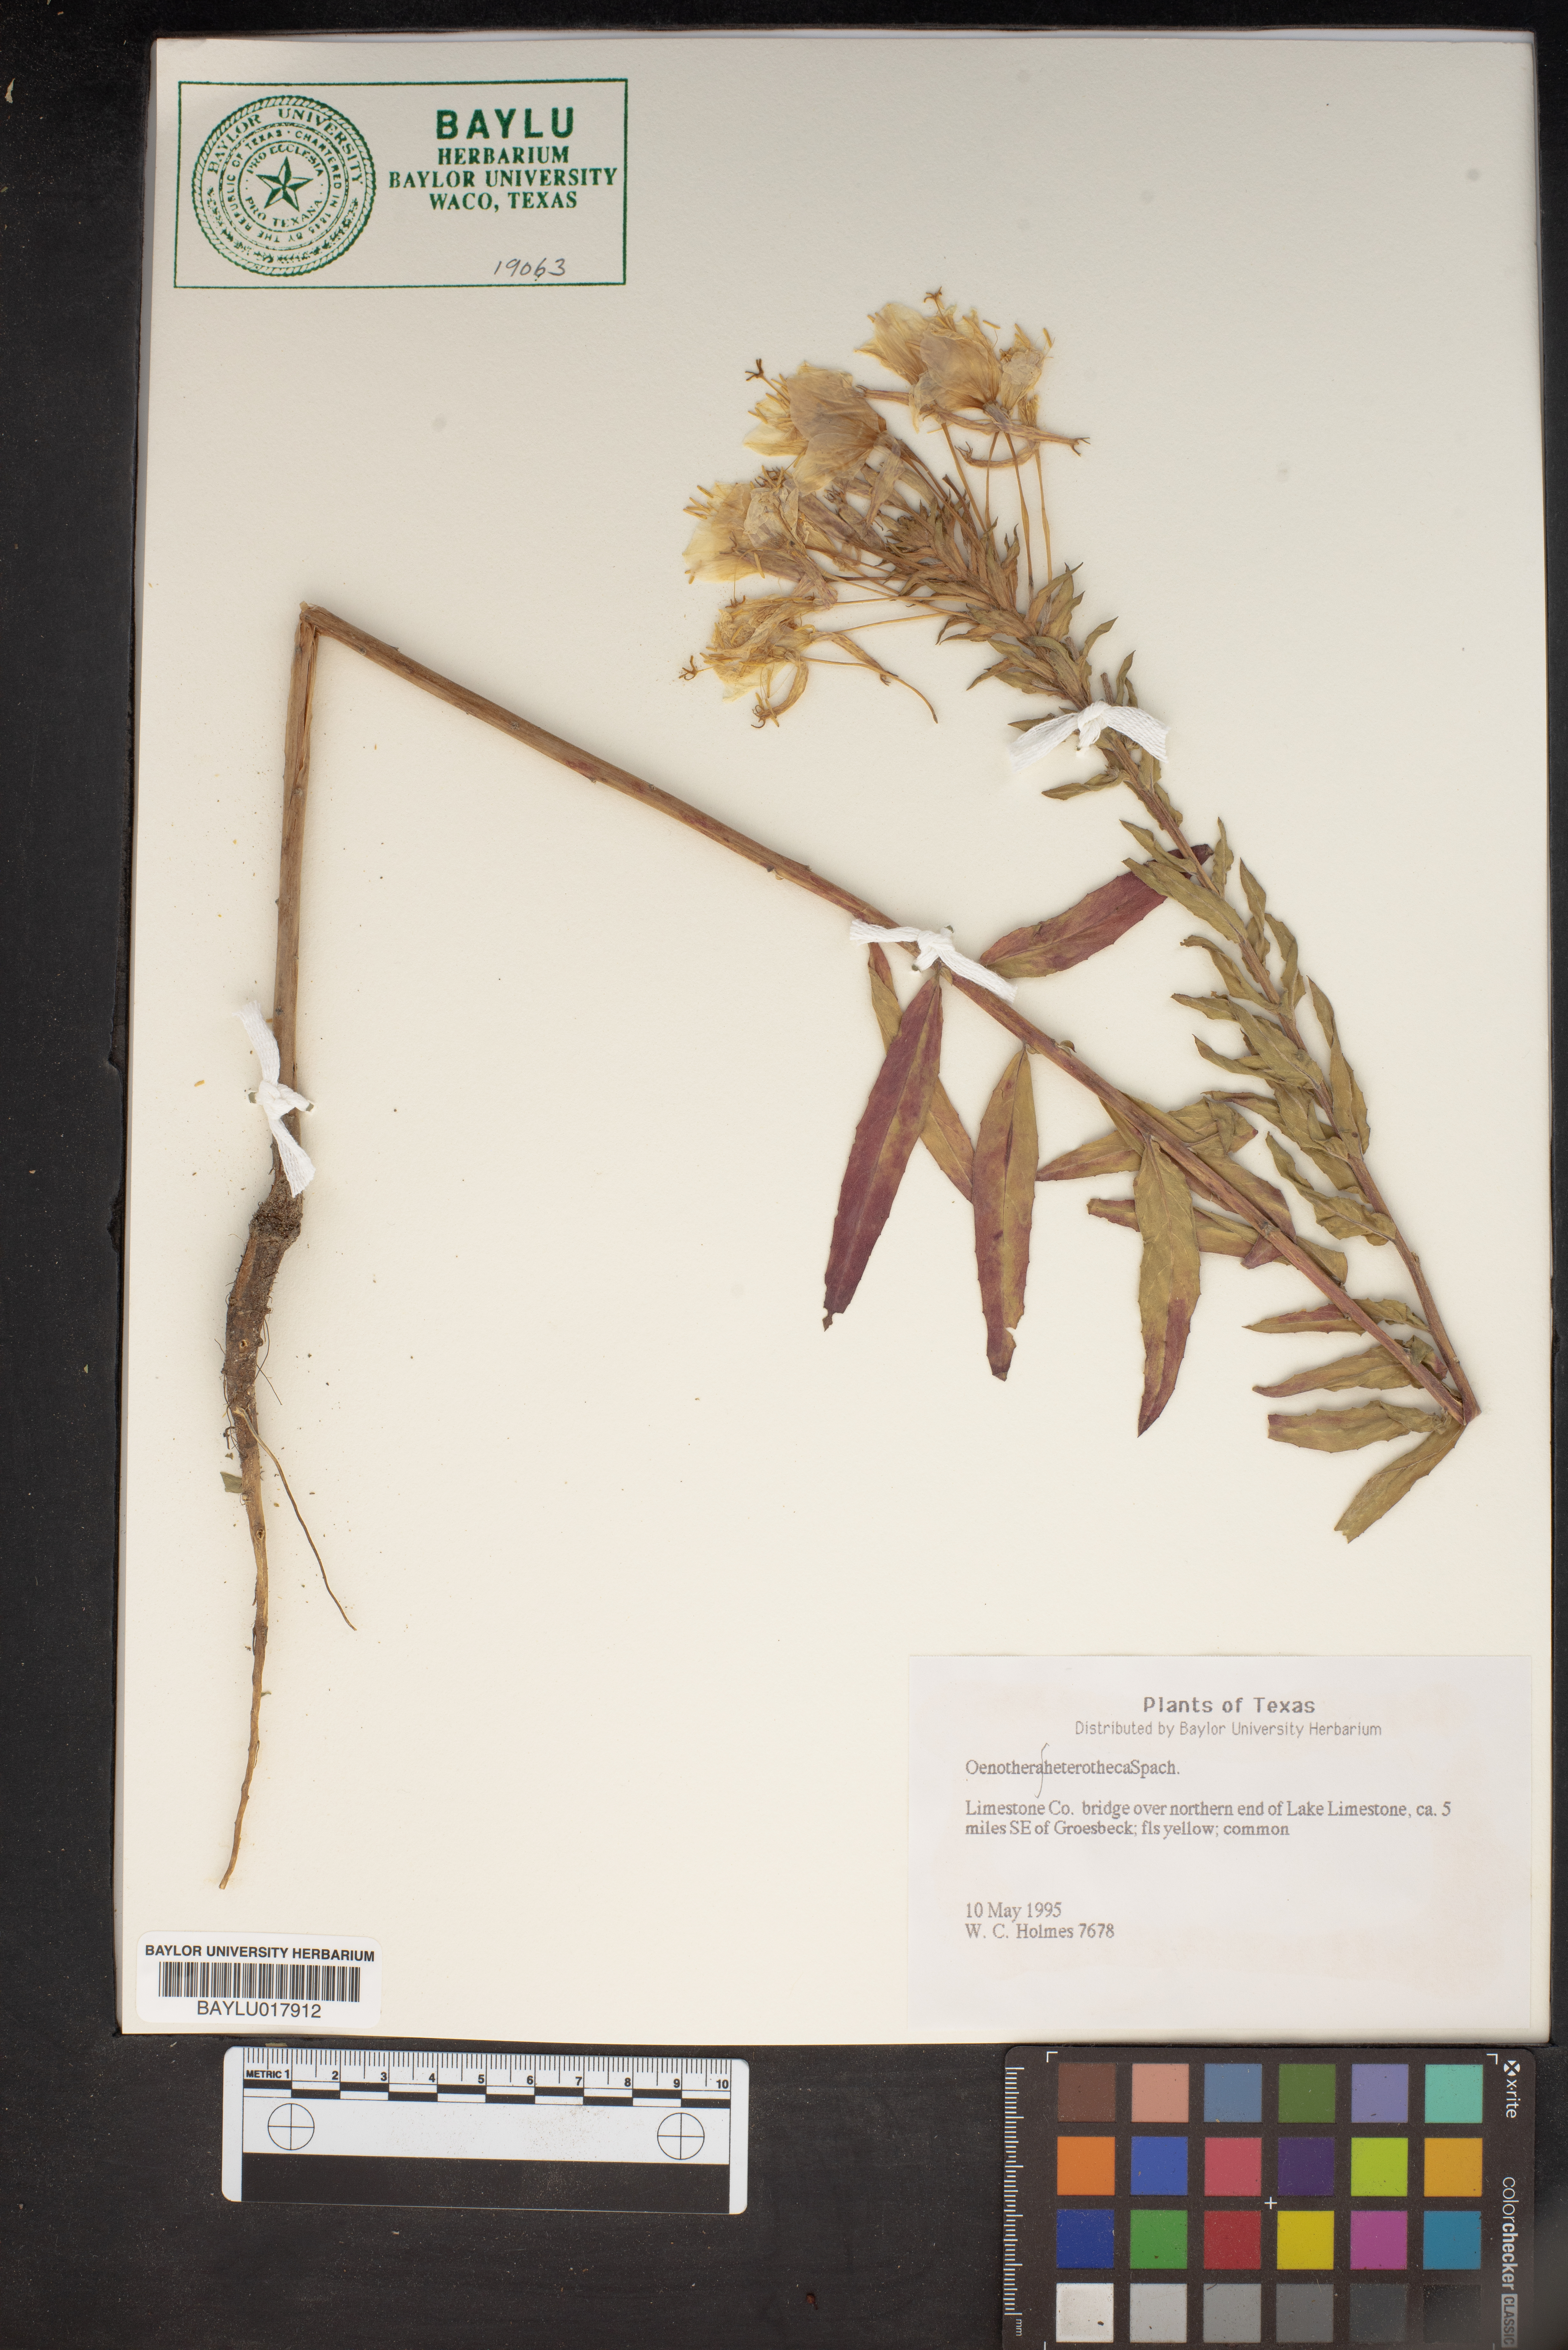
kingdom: Plantae
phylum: Tracheophyta
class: Magnoliopsida
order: Myrtales
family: Onagraceae
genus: Oenothera
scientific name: Oenothera
